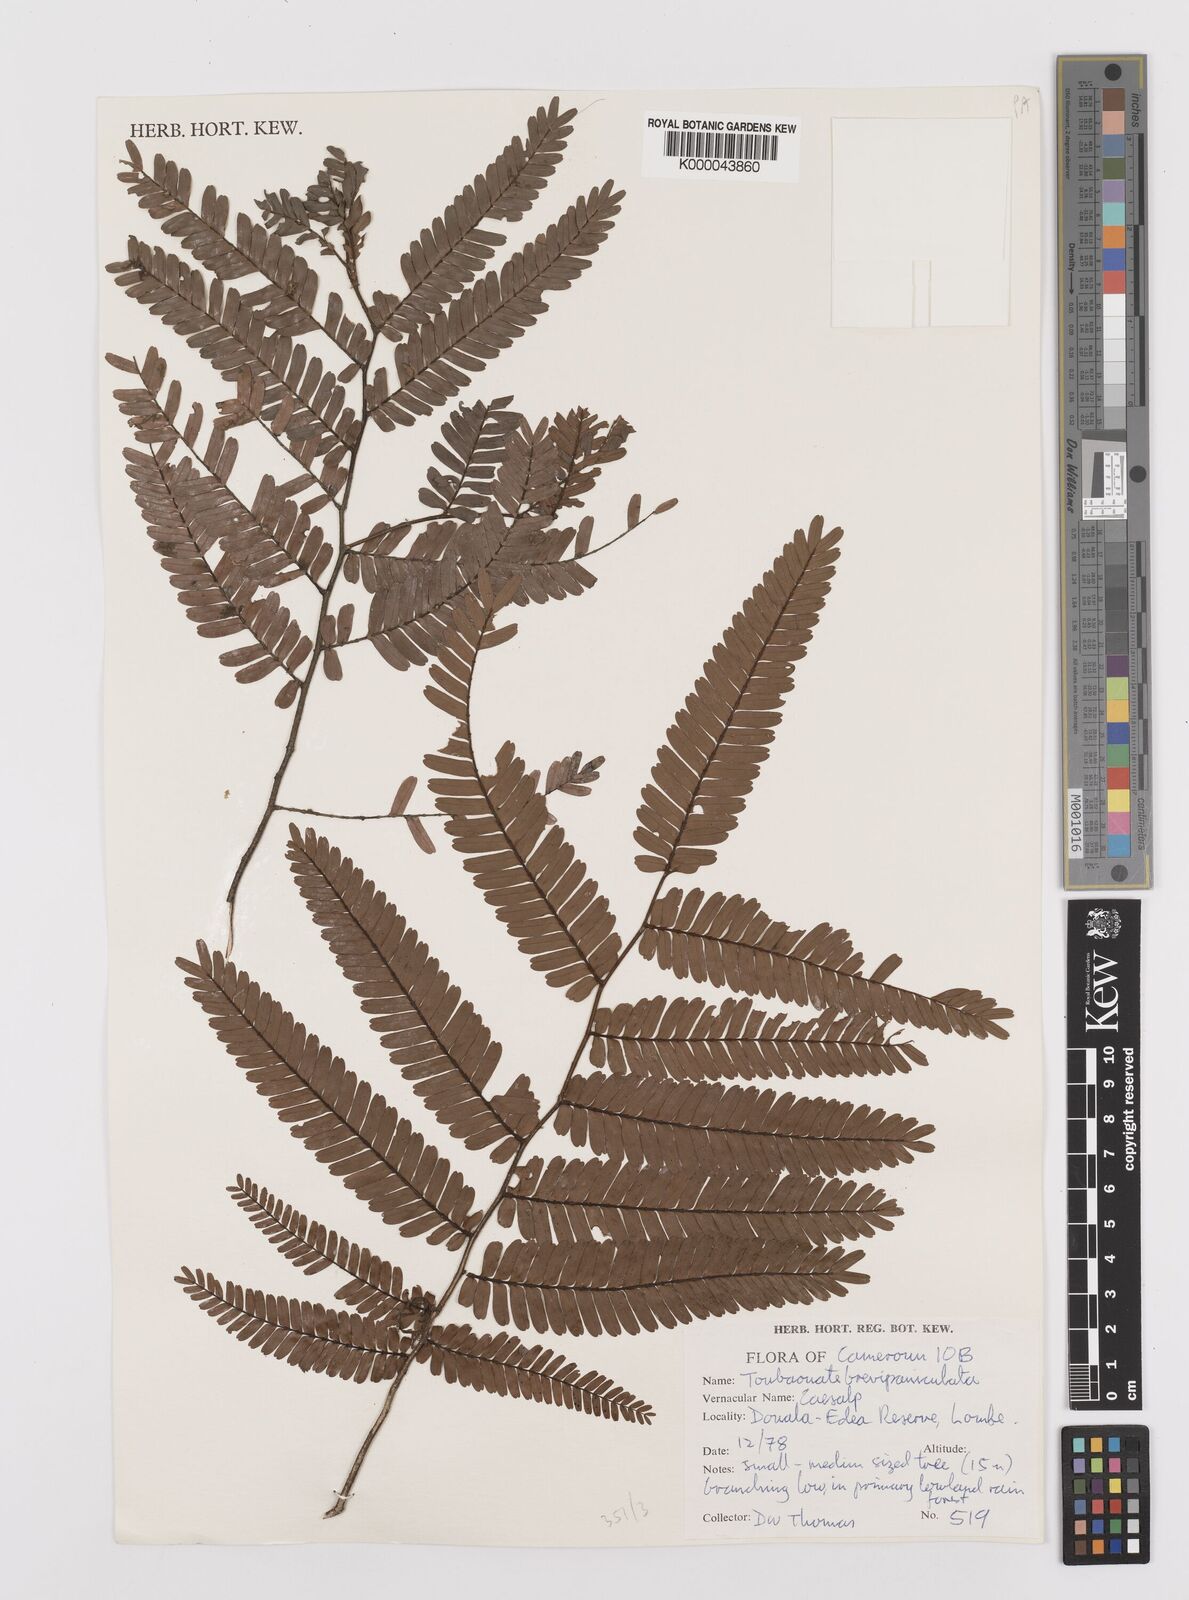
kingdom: Plantae
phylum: Tracheophyta
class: Magnoliopsida
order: Fabales
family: Fabaceae
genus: Didelotia
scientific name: Didelotia
